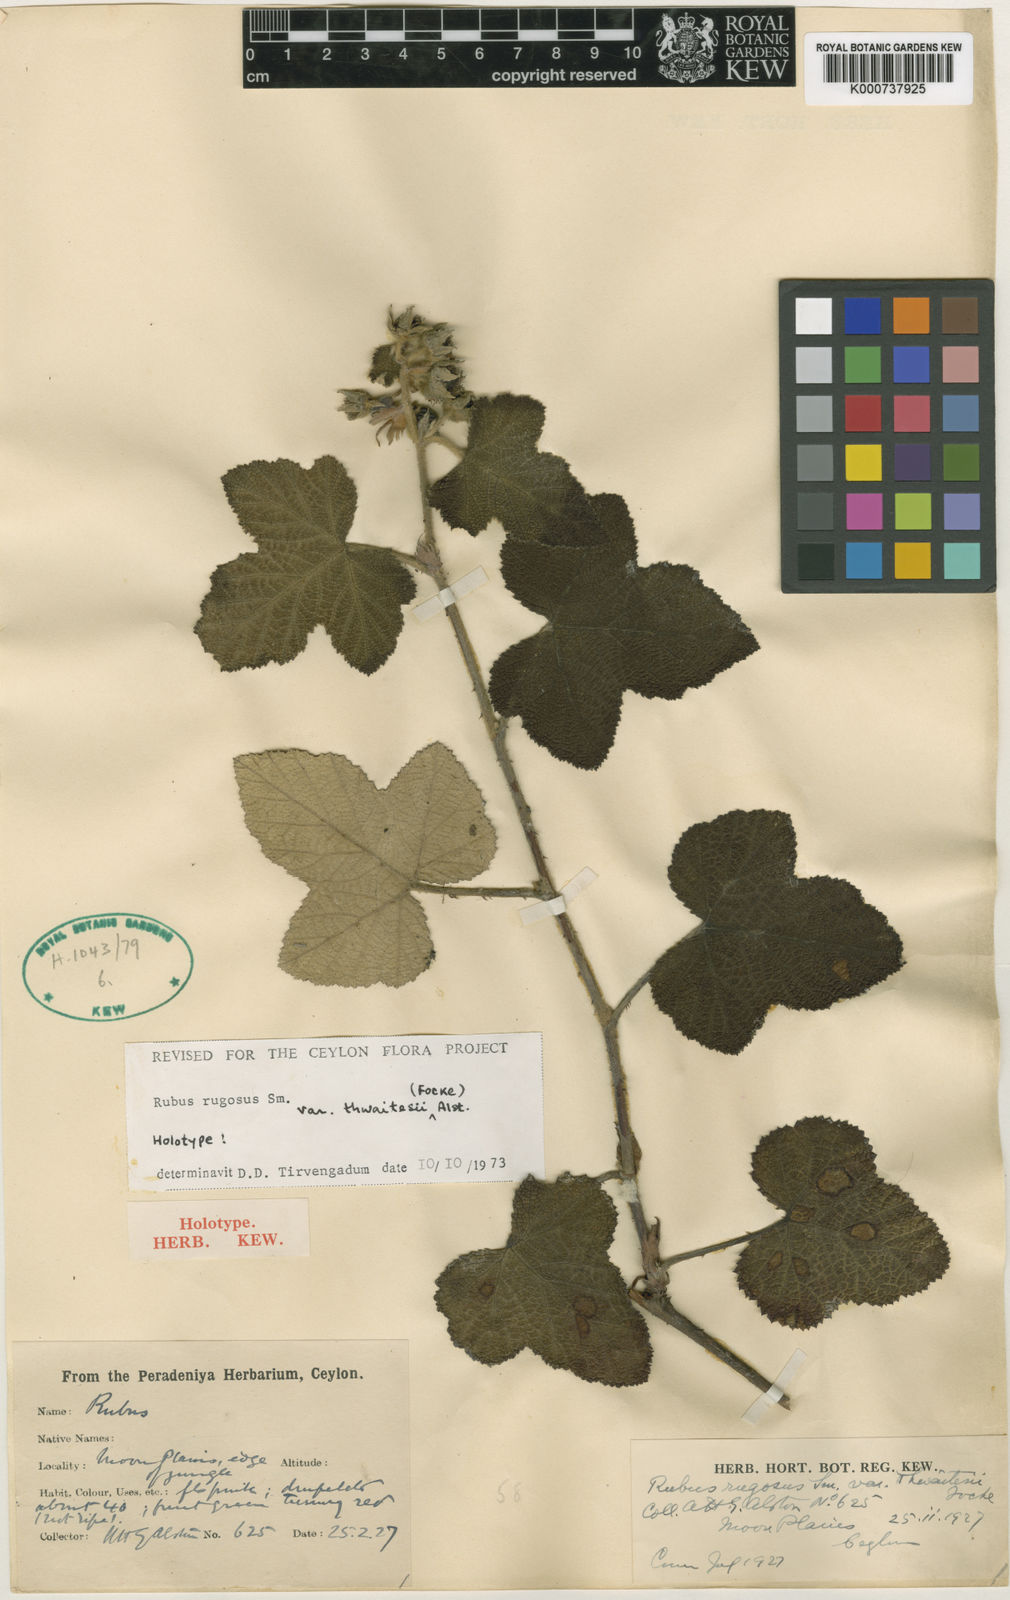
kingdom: Plantae
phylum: Tracheophyta
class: Magnoliopsida
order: Rosales
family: Rosaceae
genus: Rubus
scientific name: Rubus rugosus
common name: Himalayan blackberry
